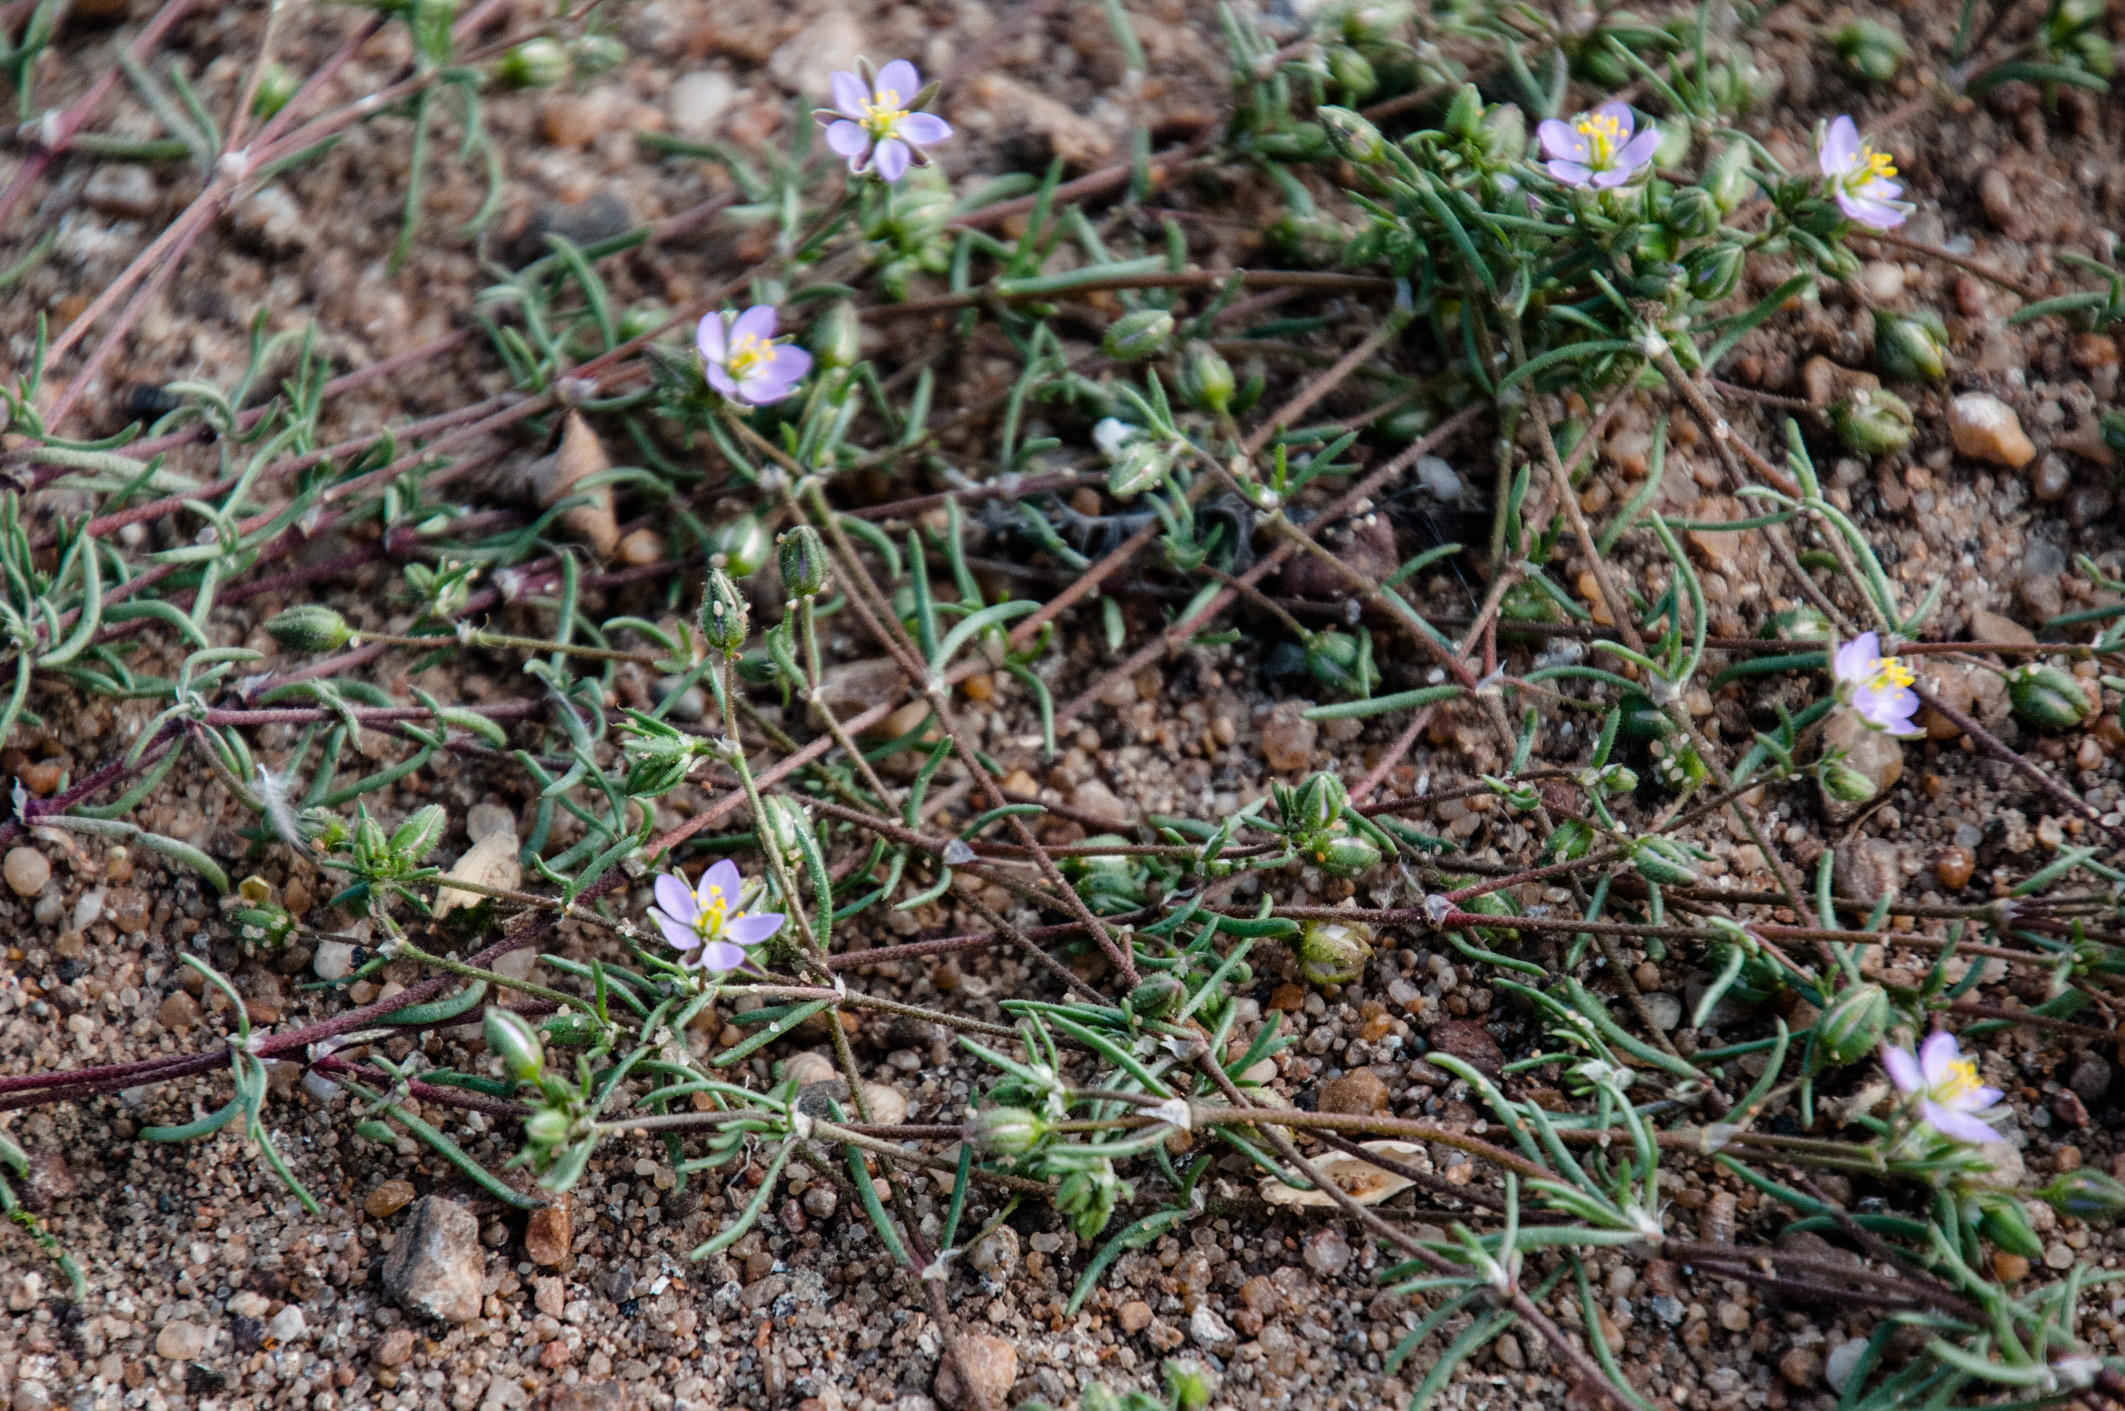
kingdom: Plantae
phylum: Tracheophyta
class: Magnoliopsida
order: Caryophyllales
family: Caryophyllaceae
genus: Spergularia
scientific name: Spergularia rubra
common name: Red sand-spurrey
